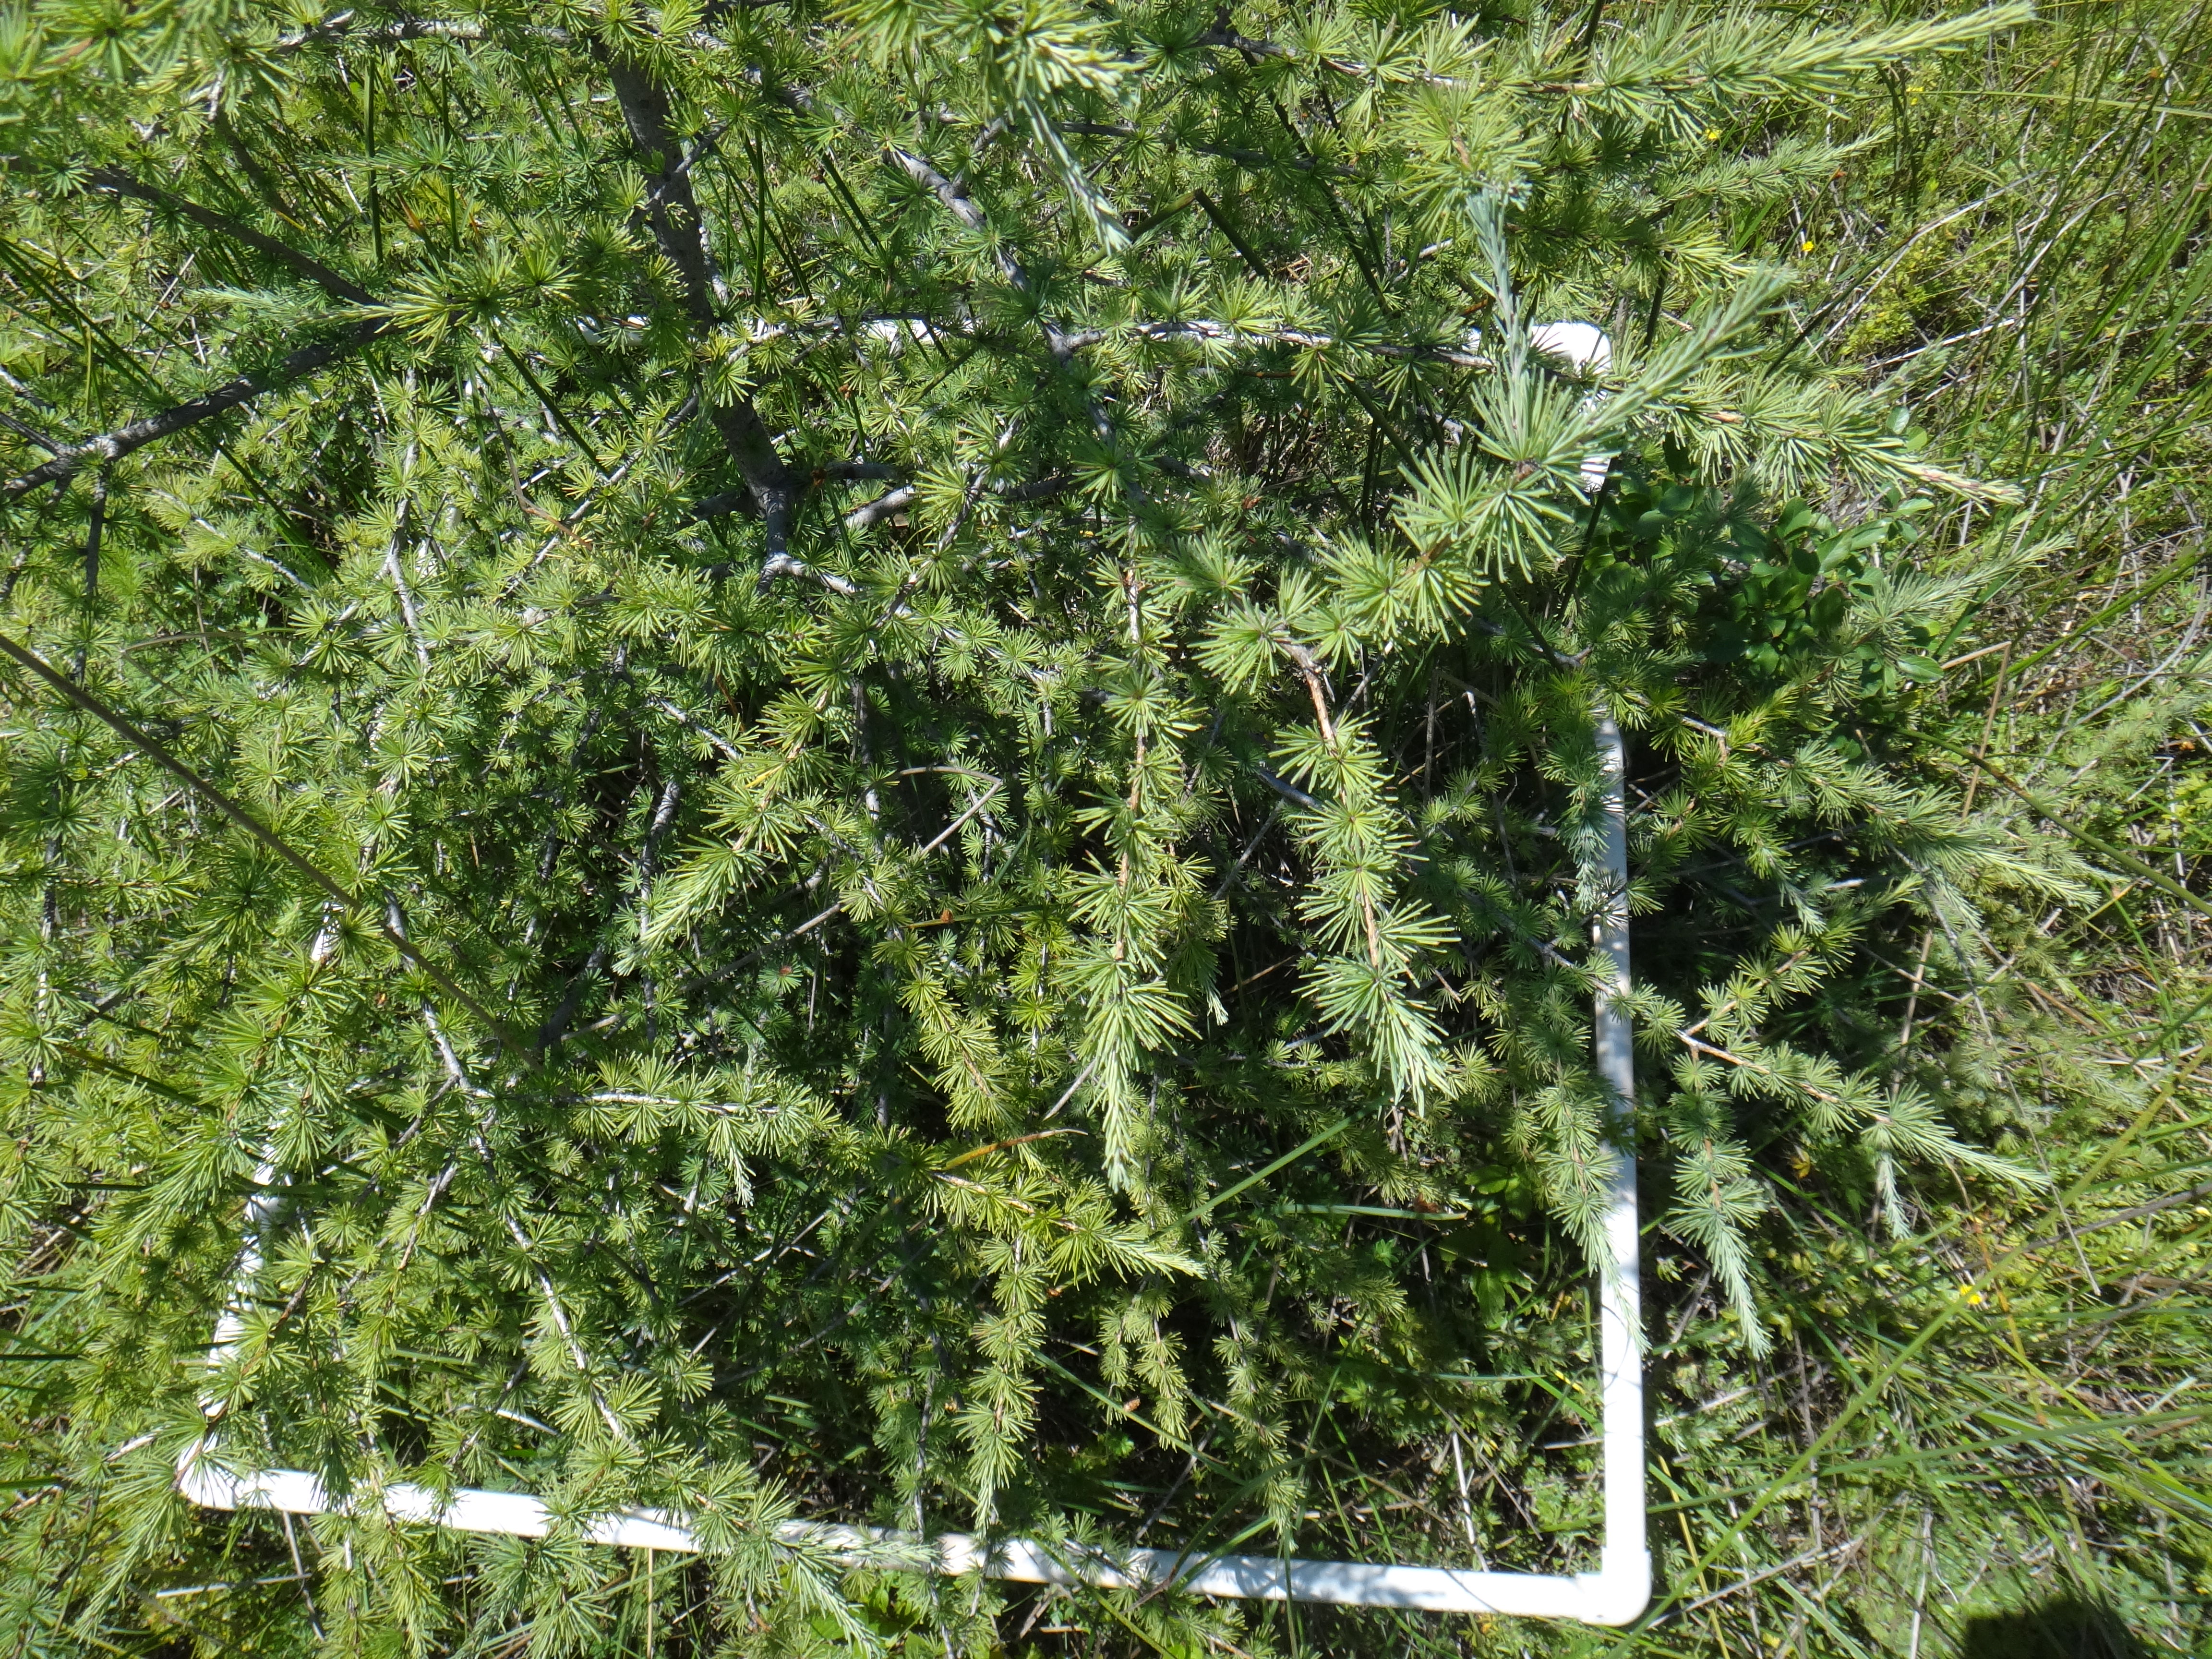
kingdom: Plantae
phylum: Tracheophyta
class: Magnoliopsida
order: Asterales
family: Asteraceae
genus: Symphyotrichum
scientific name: Symphyotrichum lanceolatum
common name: Panicled aster
